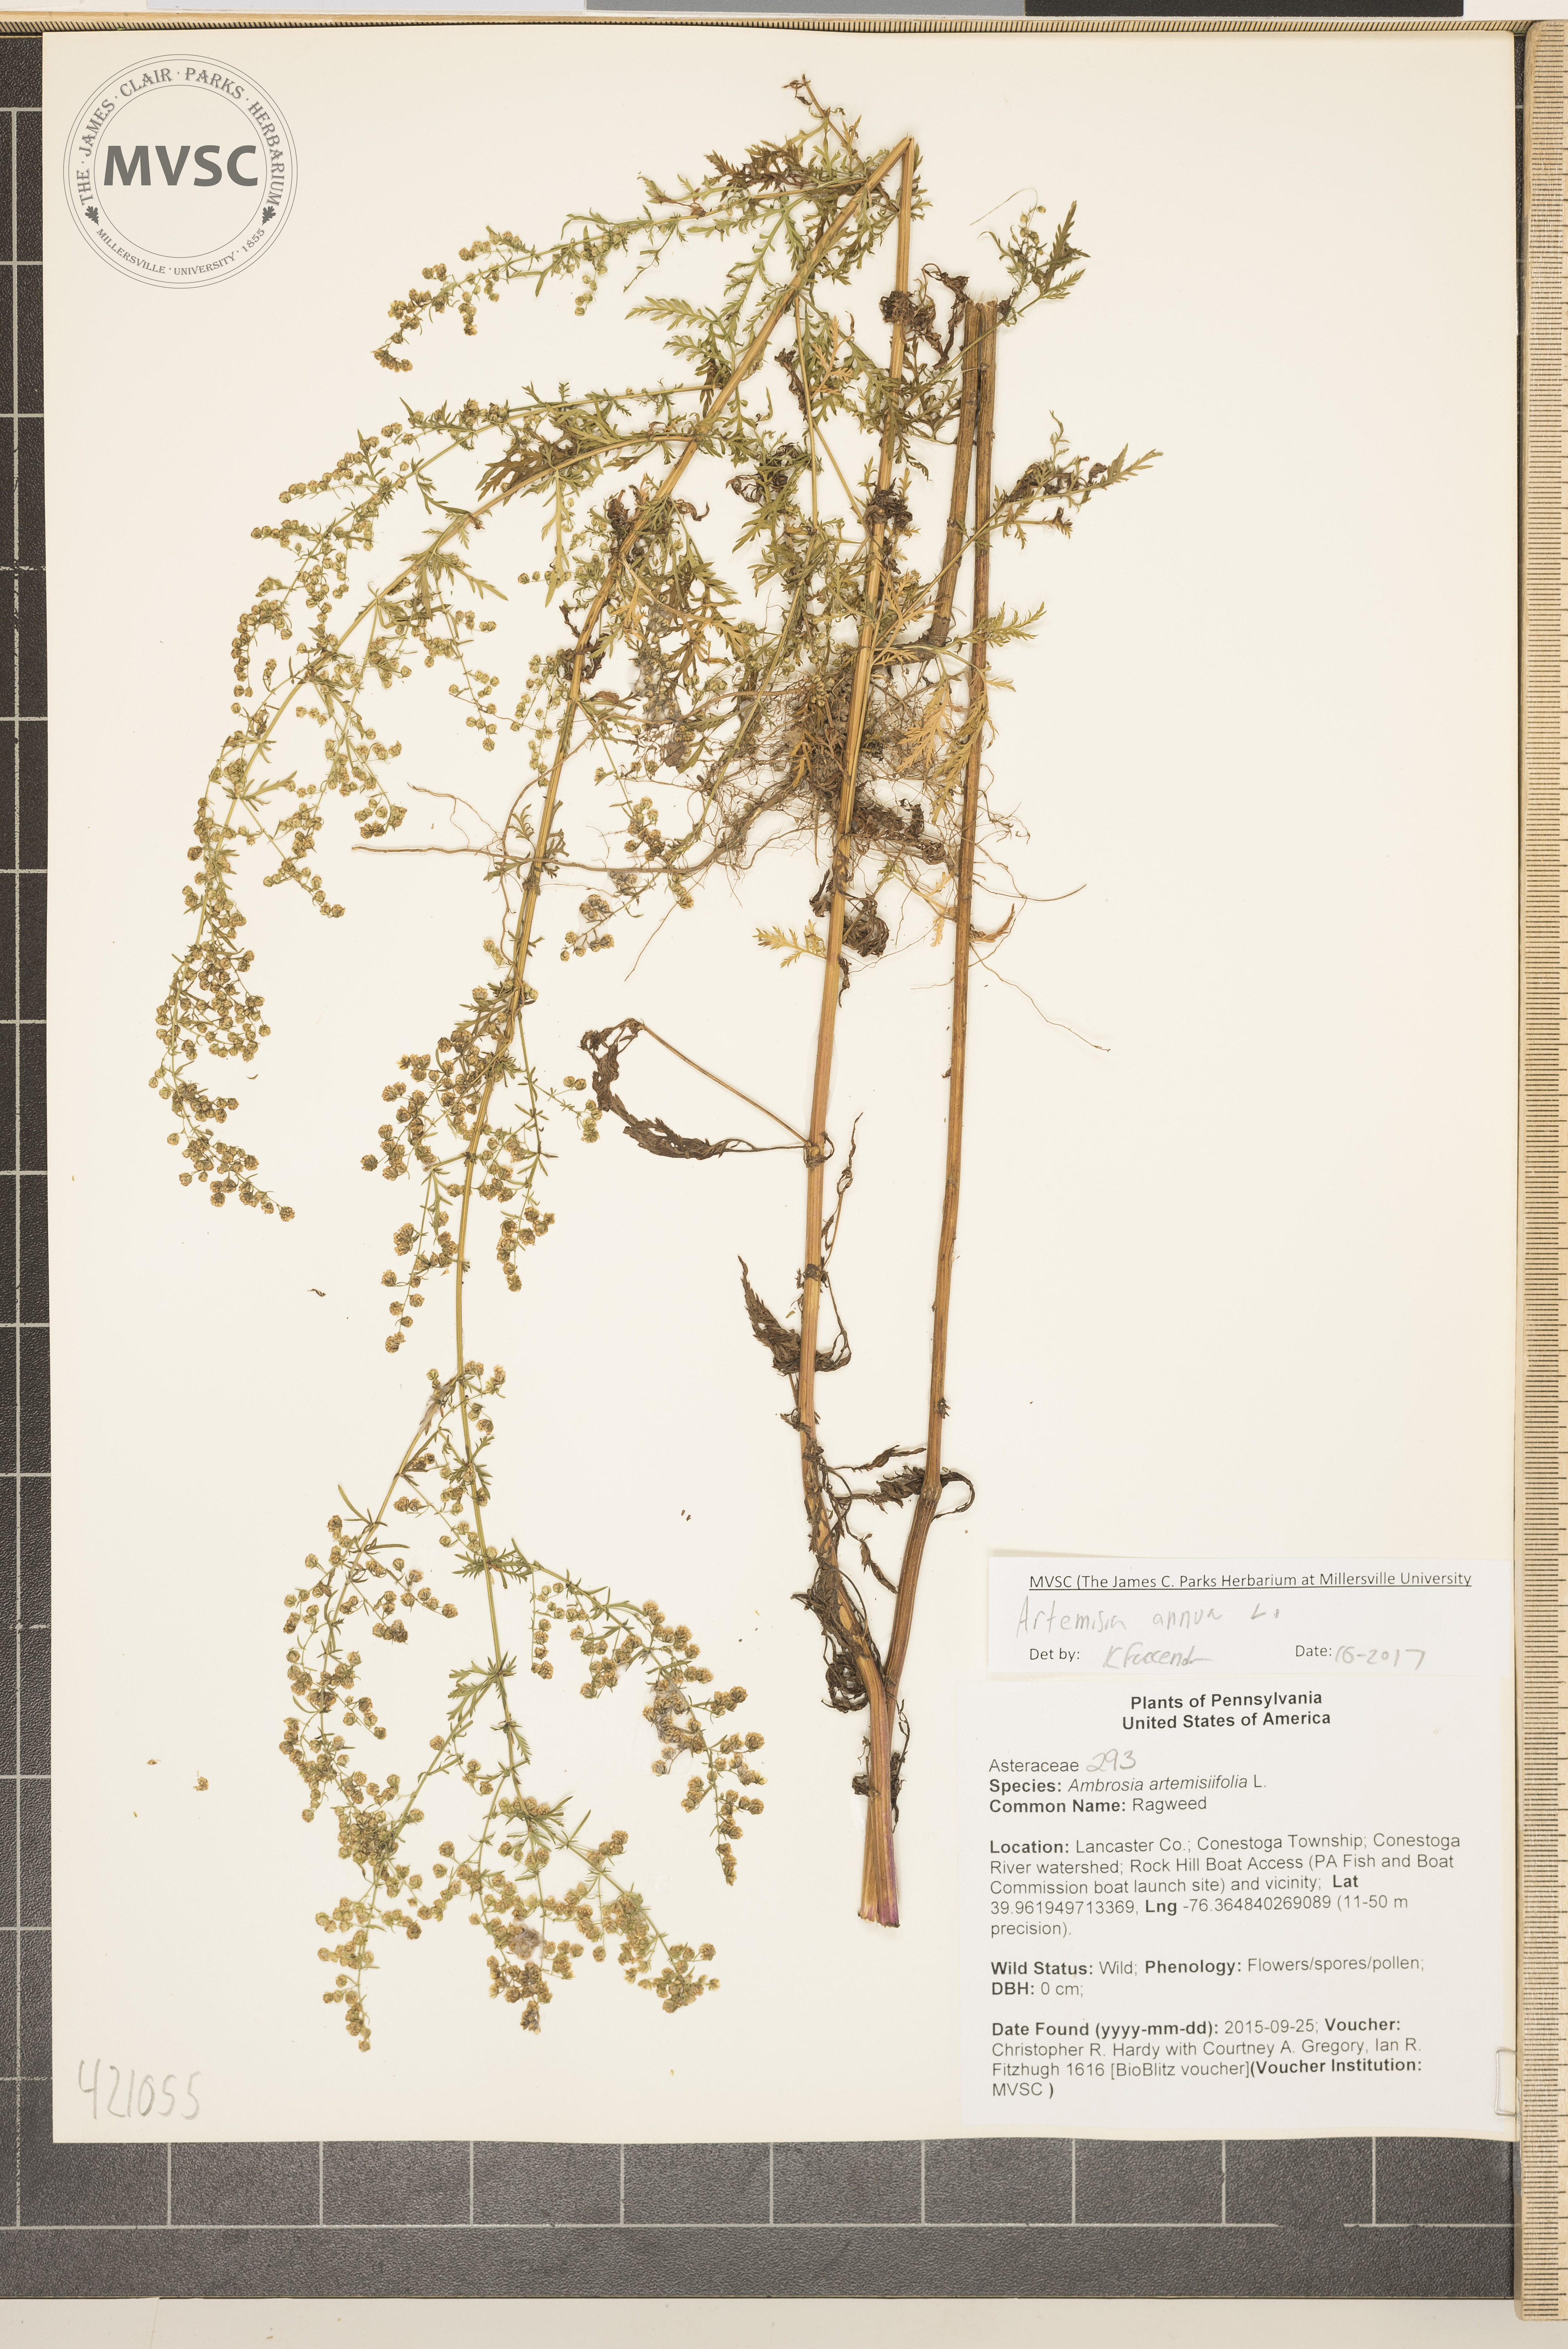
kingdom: Plantae
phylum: Tracheophyta
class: Magnoliopsida
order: Asterales
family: Asteraceae
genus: Artemisia
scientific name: Artemisia annua
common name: Sweet sagewort
